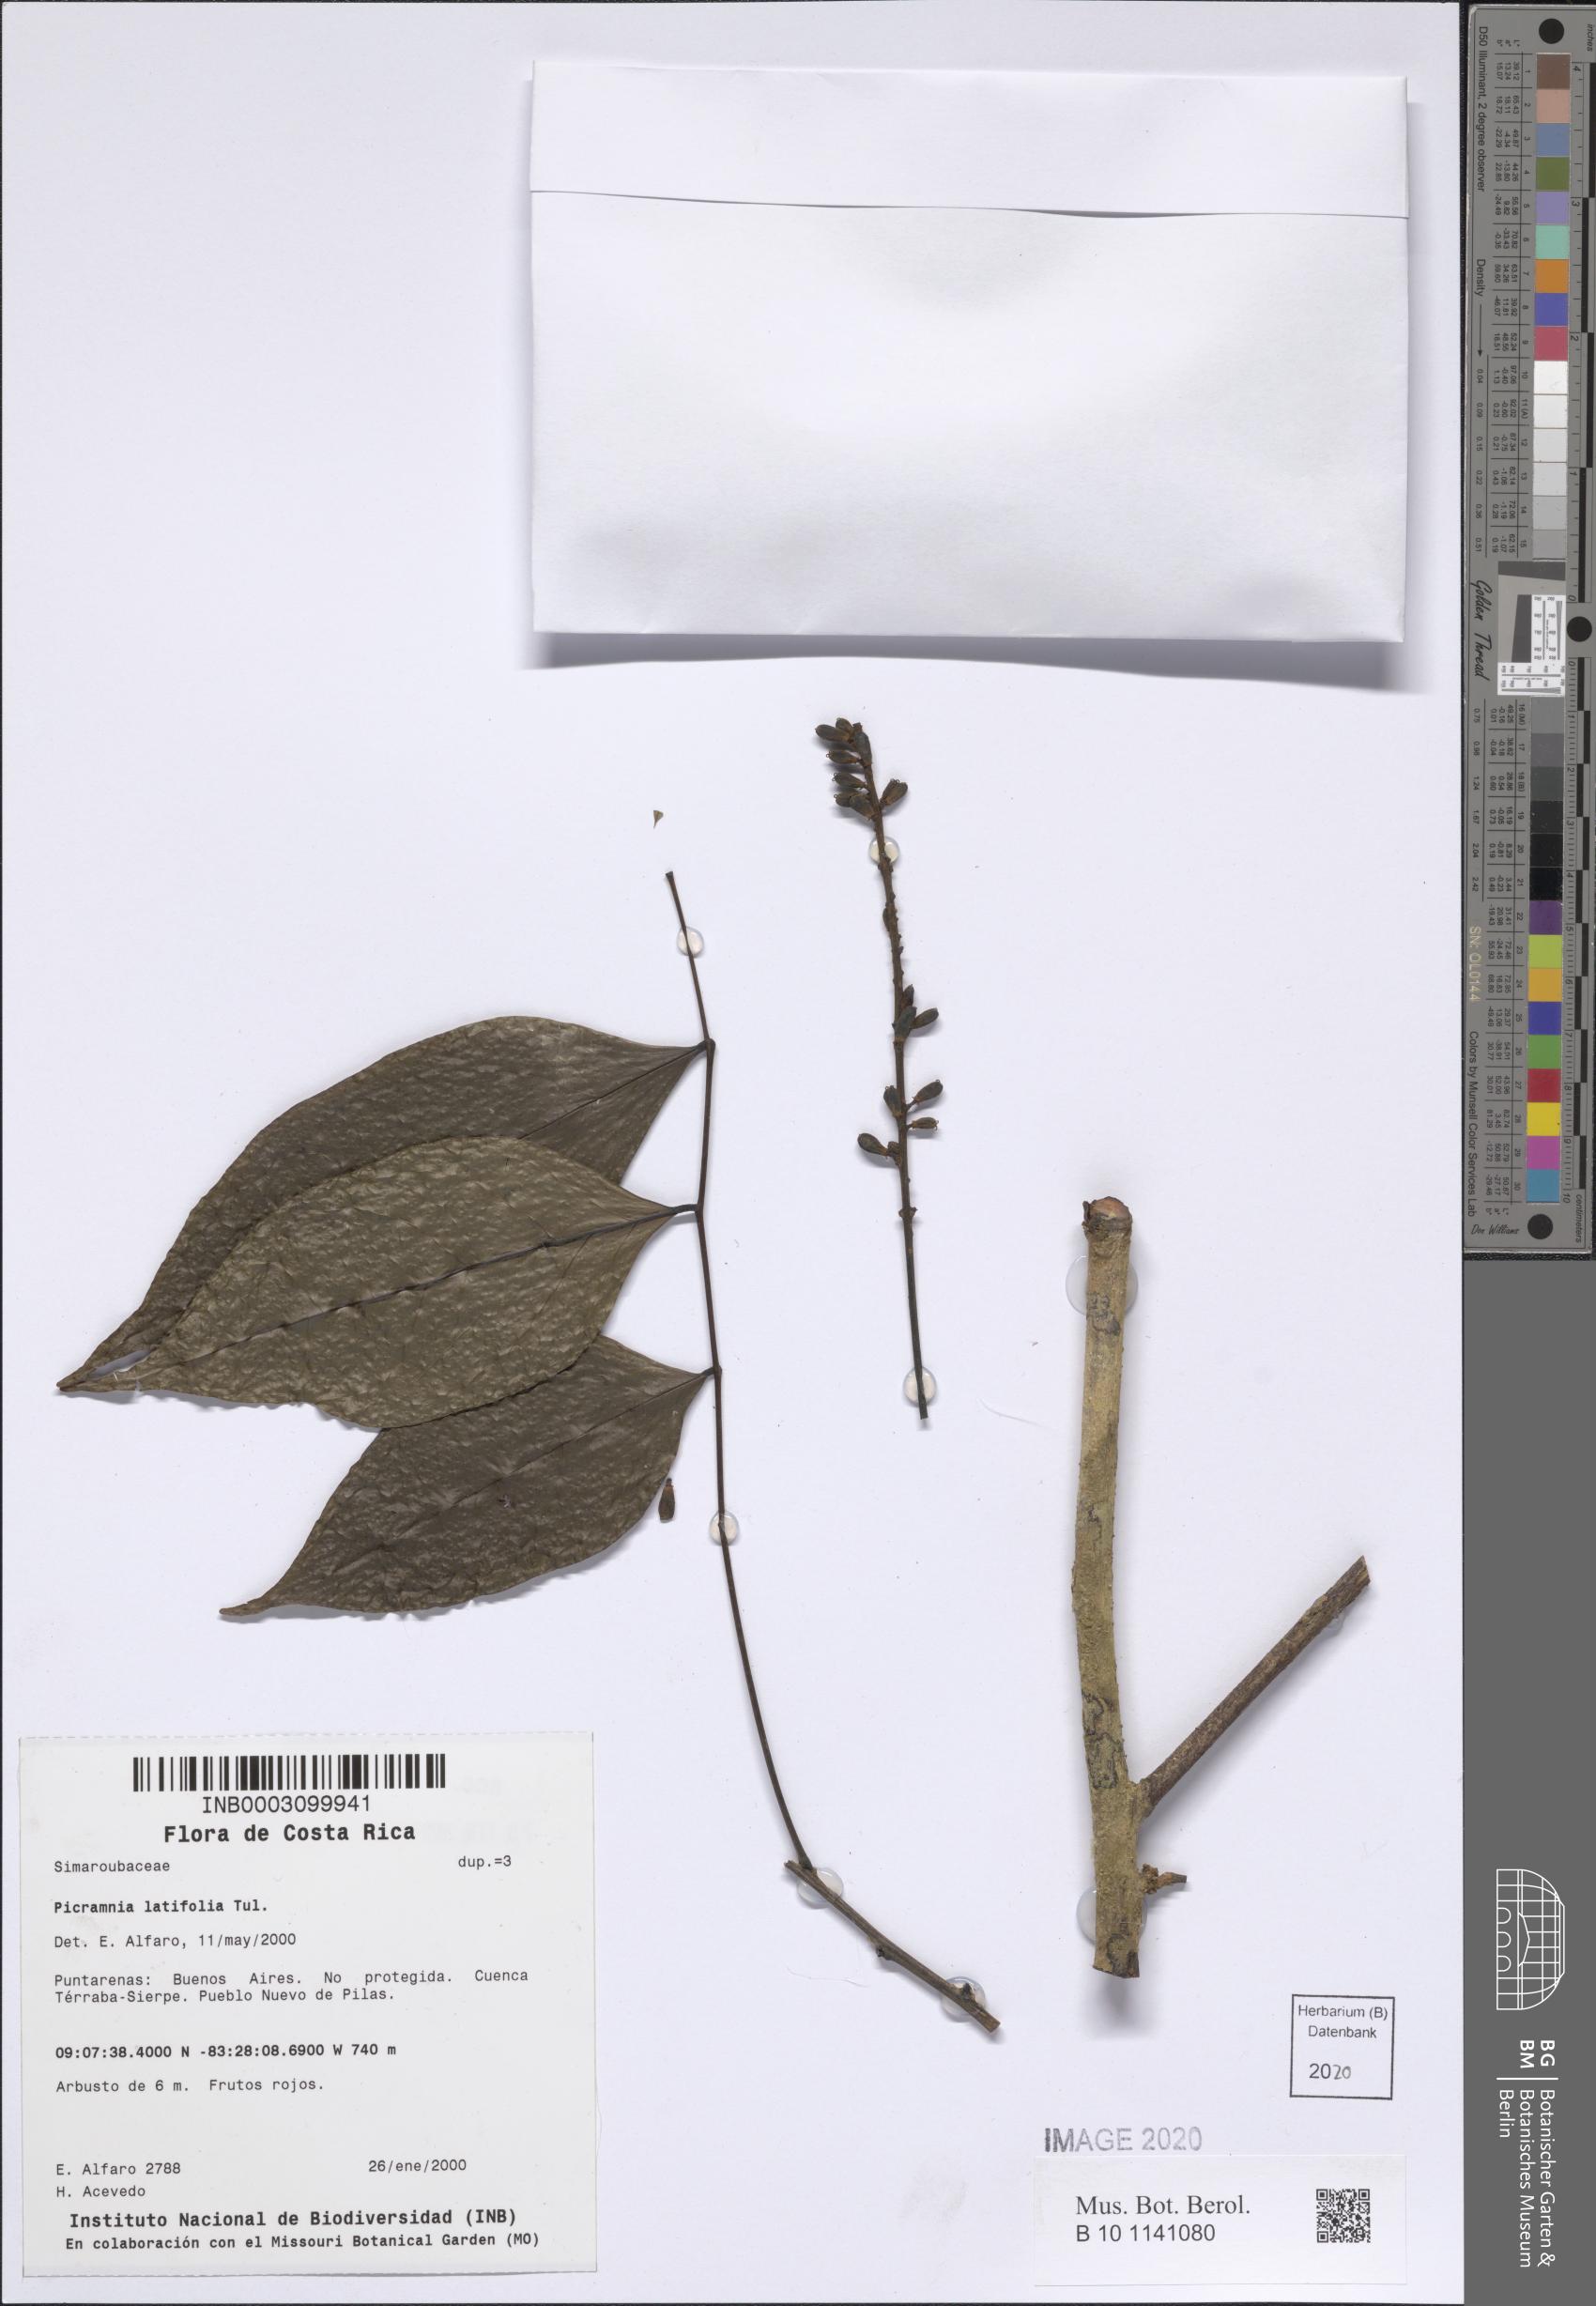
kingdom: Plantae
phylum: Tracheophyta
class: Magnoliopsida
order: Picramniales
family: Picramniaceae
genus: Picramnia
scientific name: Picramnia latifolia
